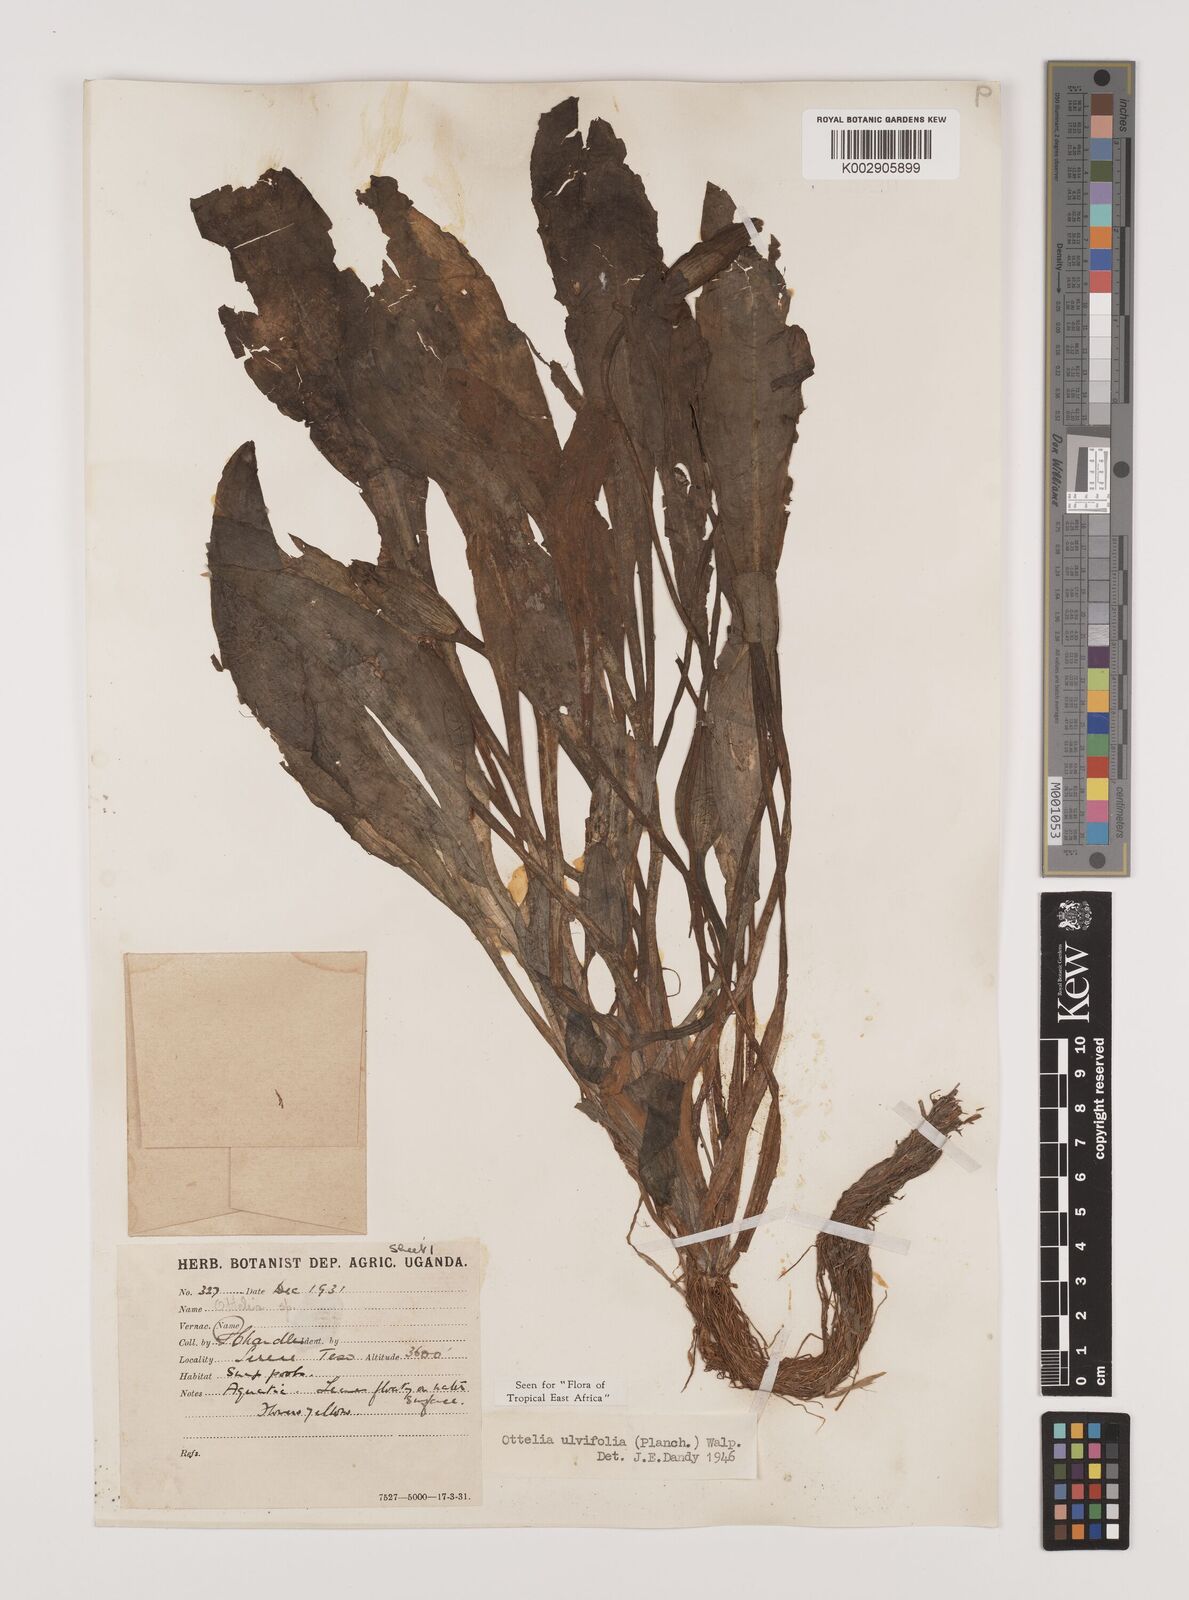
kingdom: Plantae
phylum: Tracheophyta
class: Liliopsida
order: Alismatales
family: Hydrocharitaceae
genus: Ottelia
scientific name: Ottelia ulvifolia
